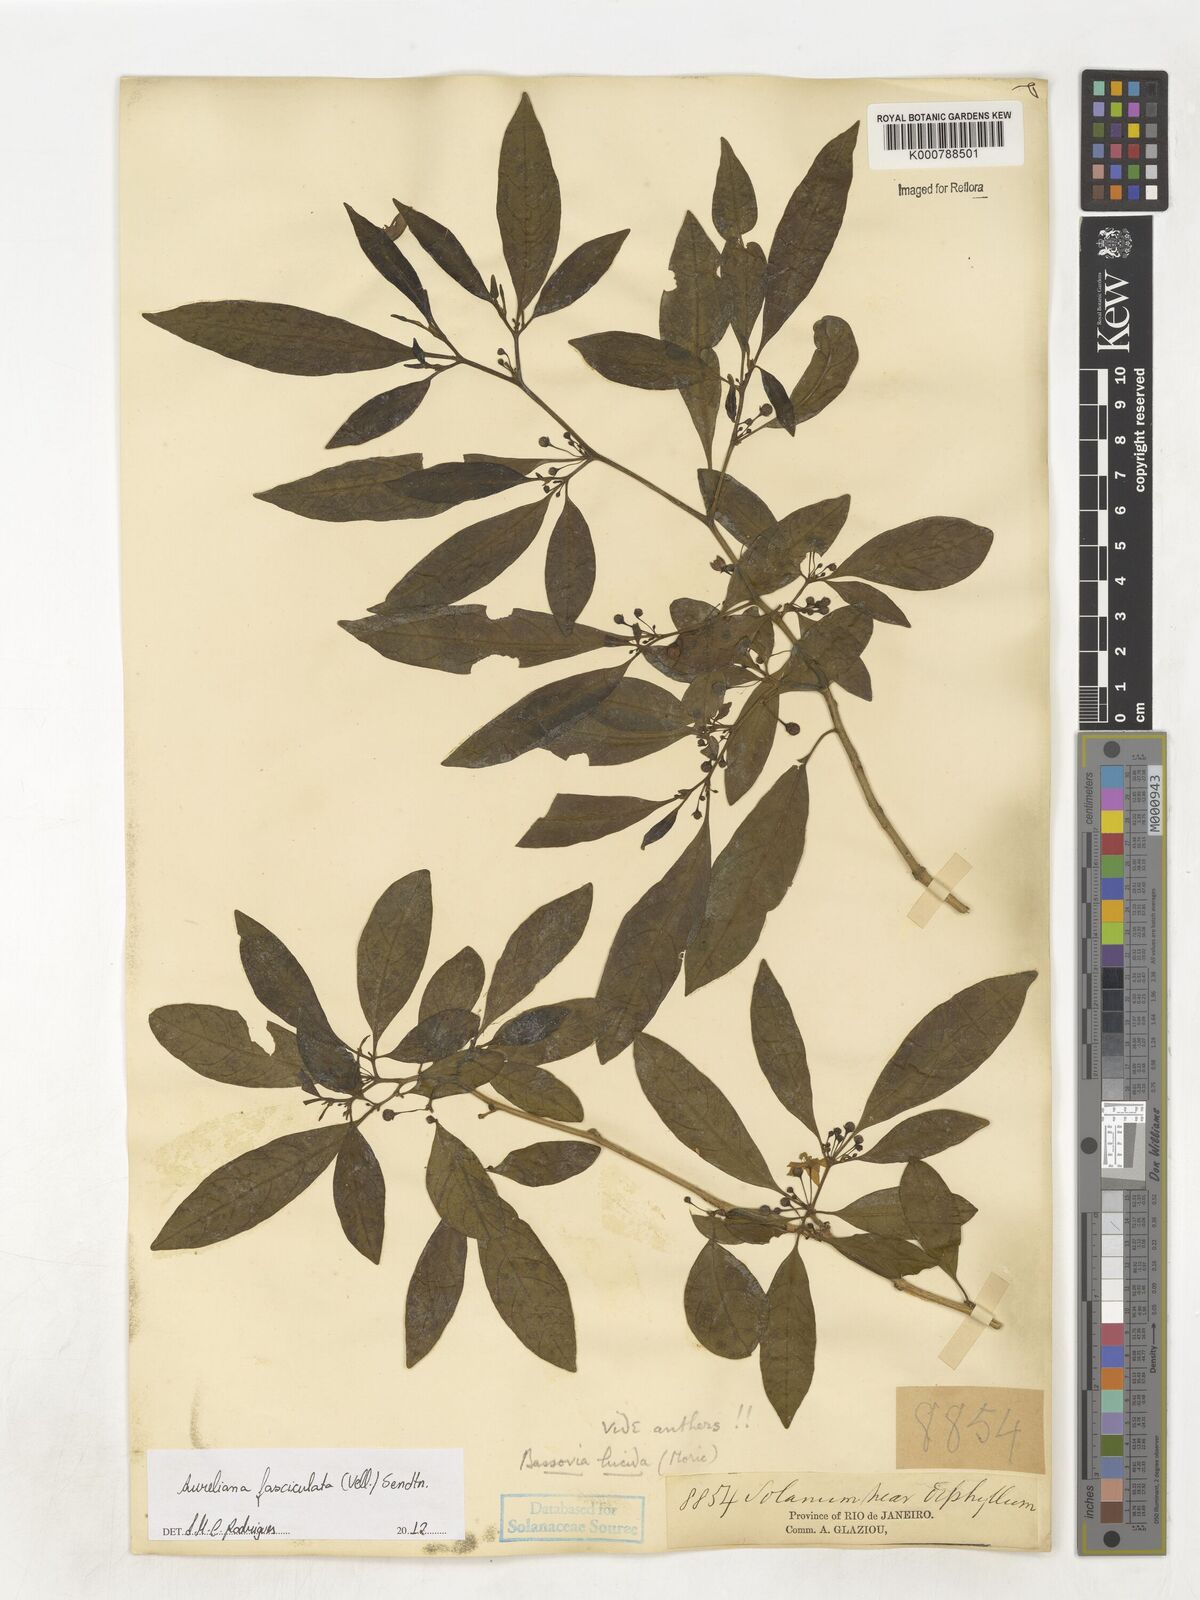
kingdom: Plantae
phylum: Tracheophyta
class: Magnoliopsida
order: Solanales
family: Solanaceae
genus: Athenaea
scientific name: Athenaea fasciculata
